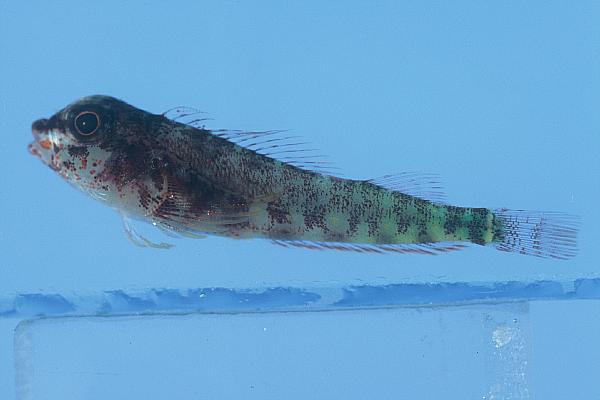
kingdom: Animalia
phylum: Chordata
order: Perciformes
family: Tripterygiidae
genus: Helcogramma
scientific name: Helcogramma fuscopinna
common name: Blackfin triplefin
